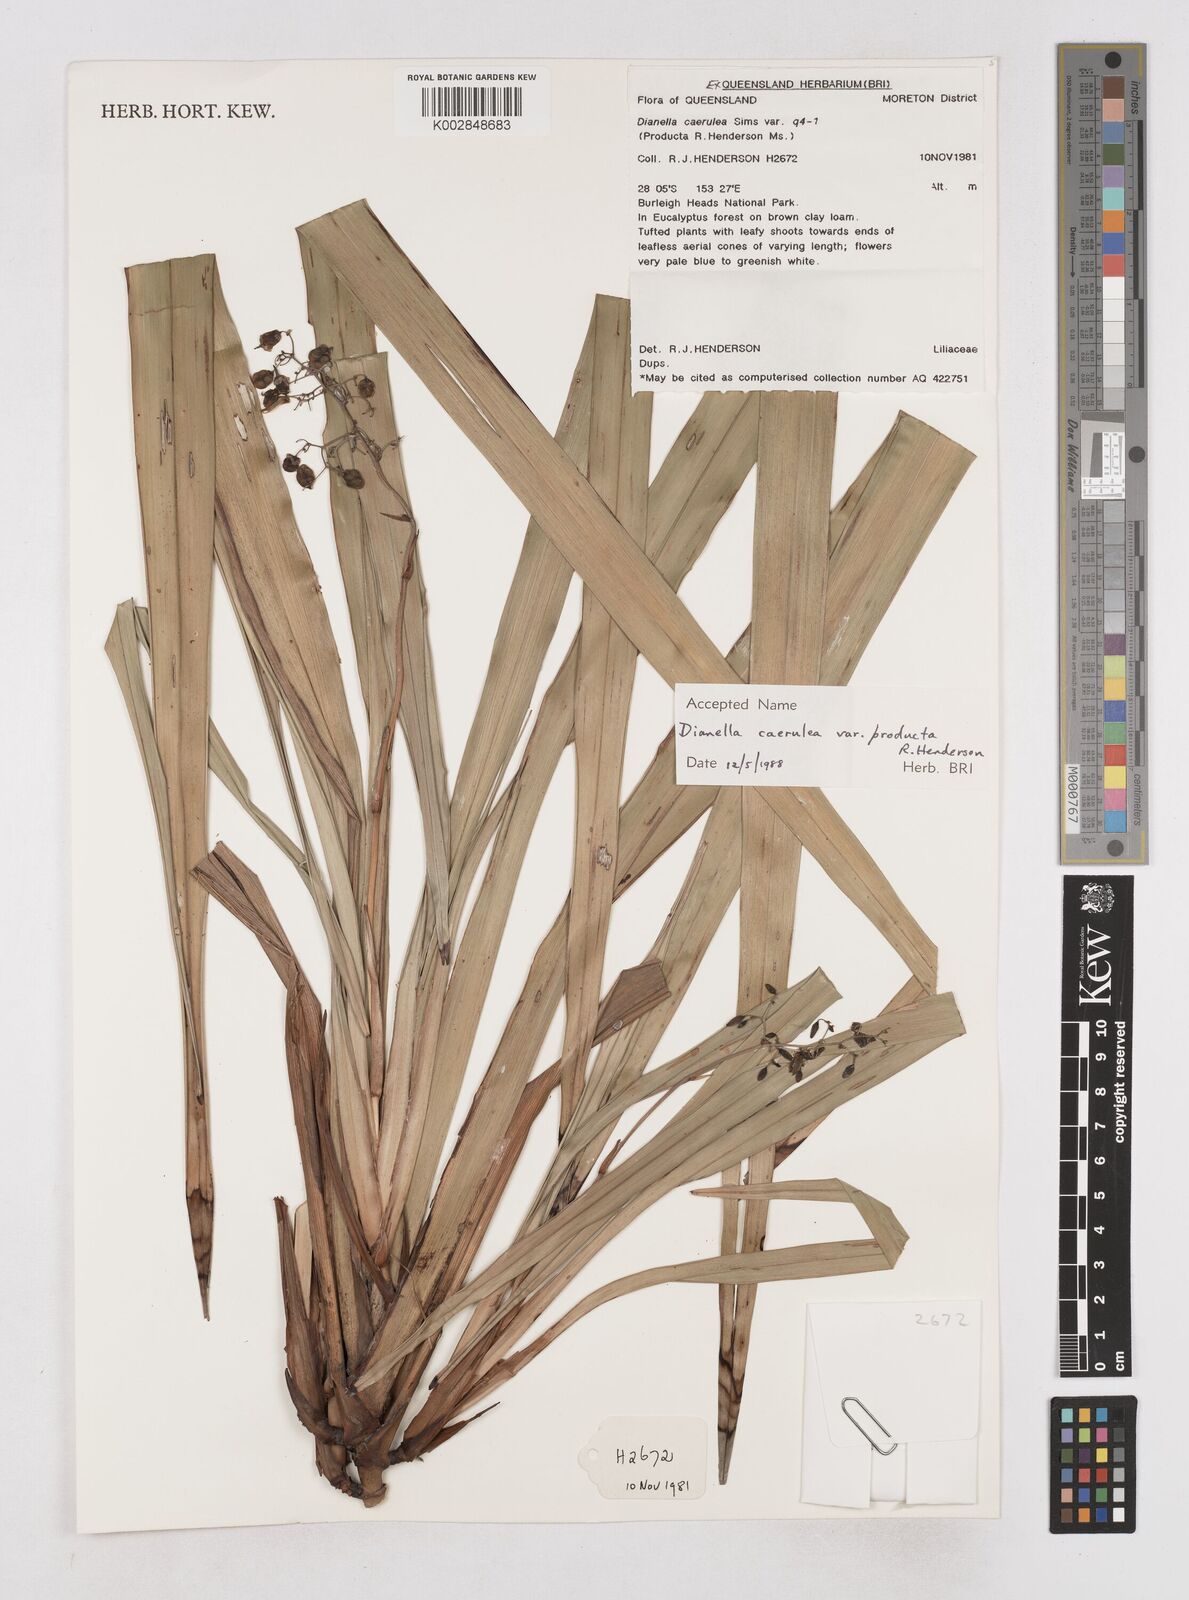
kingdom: Plantae
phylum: Tracheophyta
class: Liliopsida
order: Asparagales
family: Asphodelaceae
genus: Dianella
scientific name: Dianella caerulea
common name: Blue flax-lily
